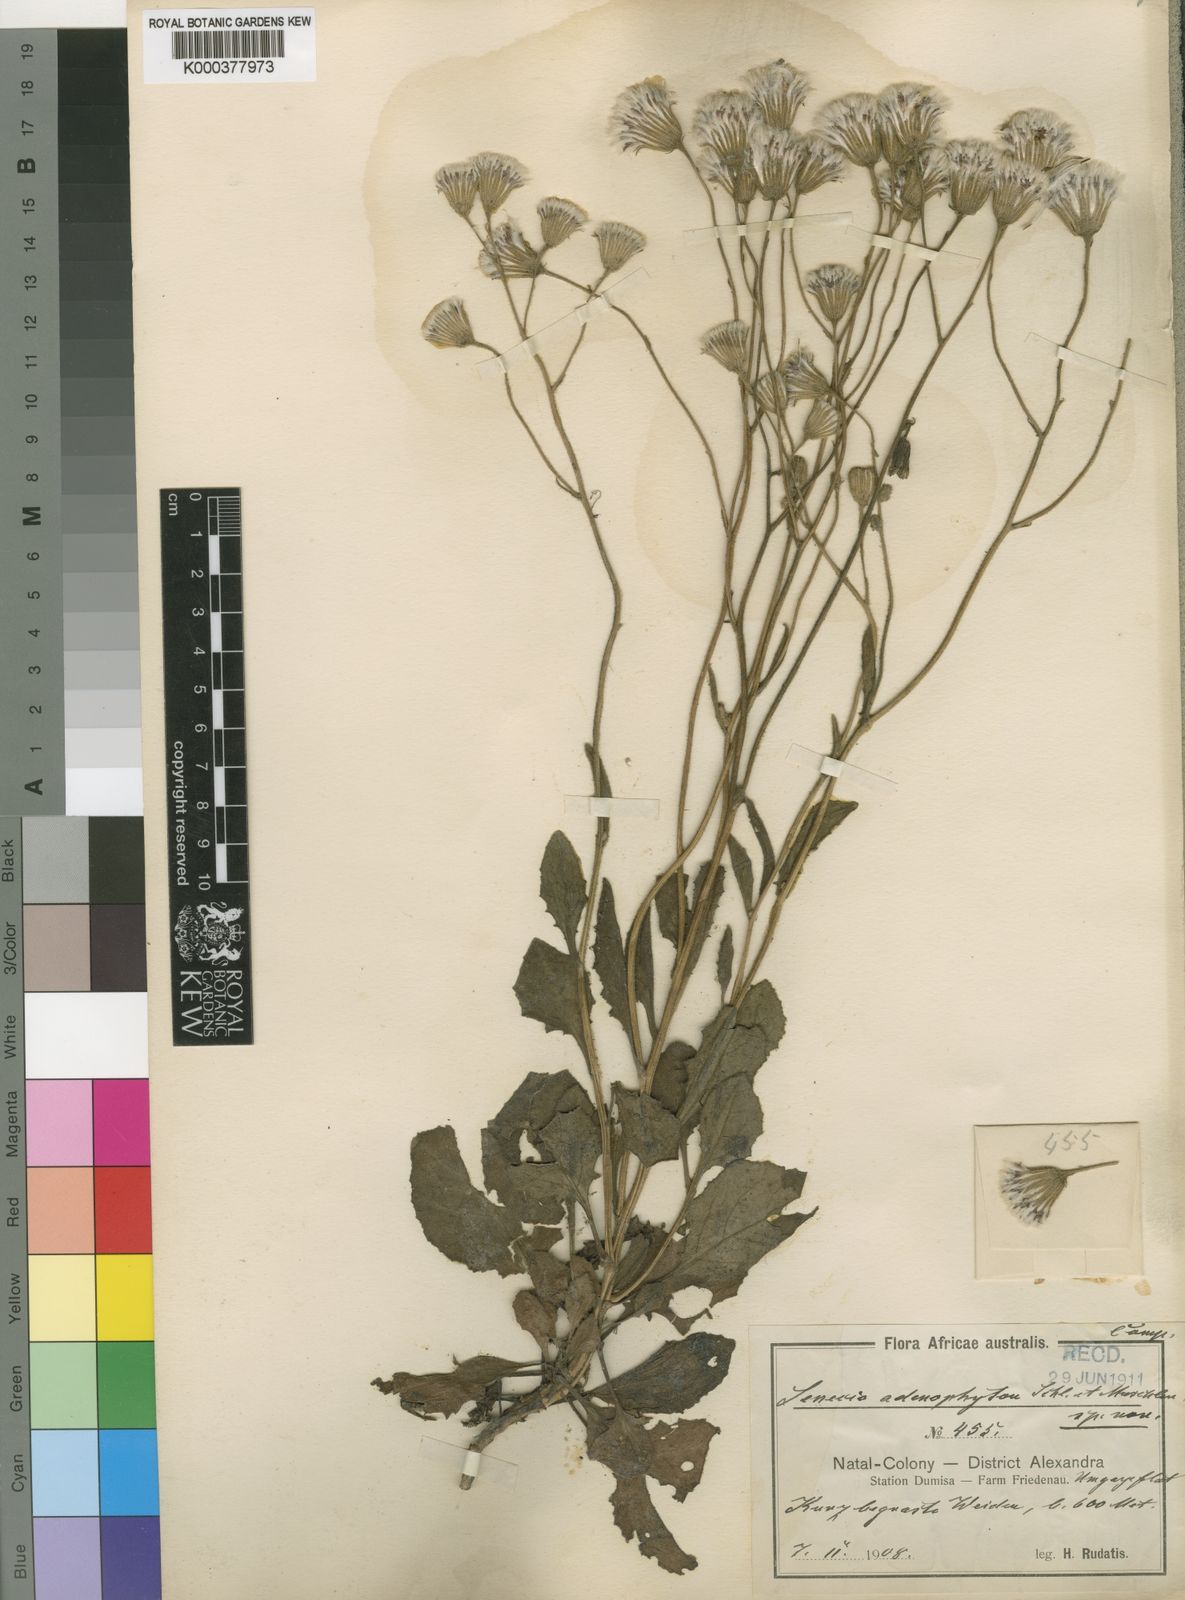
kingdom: Plantae
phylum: Tracheophyta
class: Magnoliopsida
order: Asterales
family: Asteraceae
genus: Senecio
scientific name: Senecio glanduloso-lanosus
